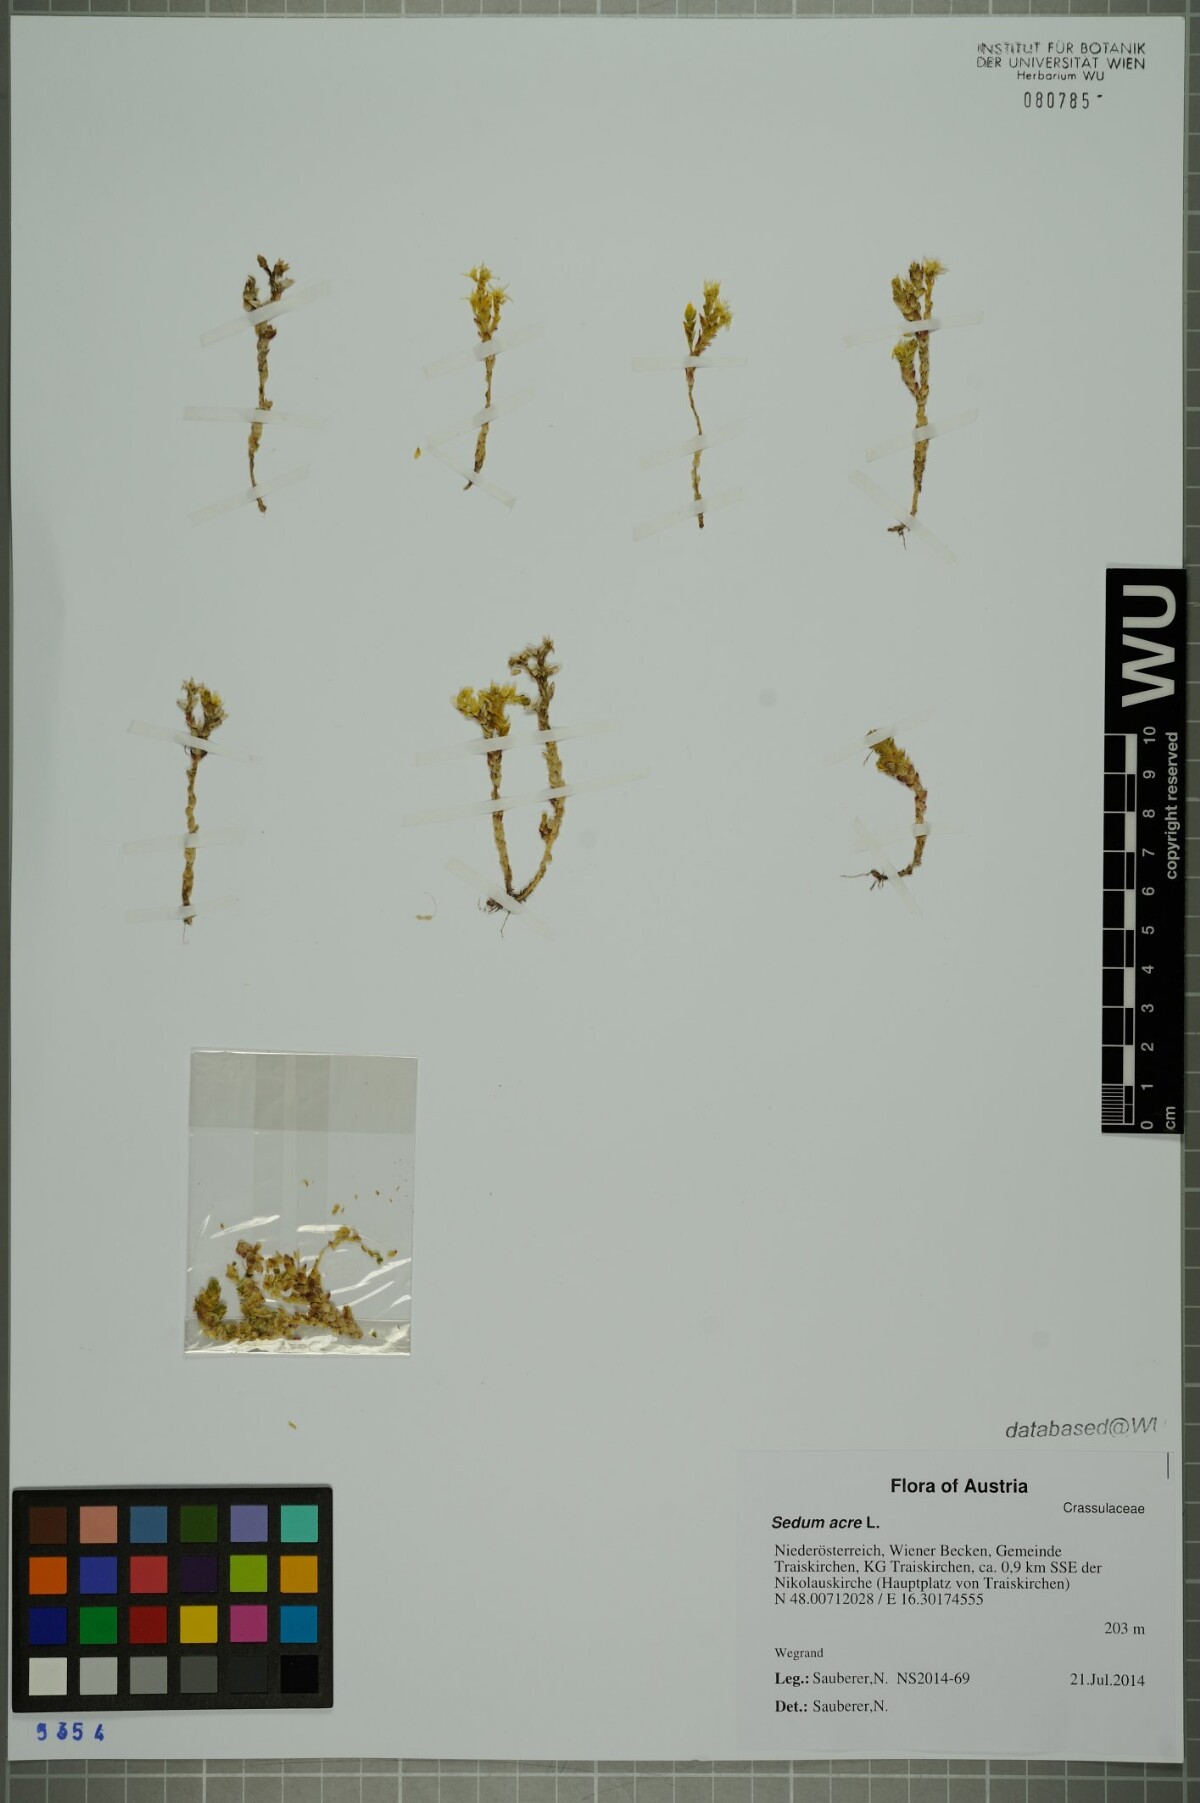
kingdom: Plantae
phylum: Tracheophyta
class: Magnoliopsida
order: Saxifragales
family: Crassulaceae
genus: Sedum
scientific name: Sedum acre
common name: Biting stonecrop
